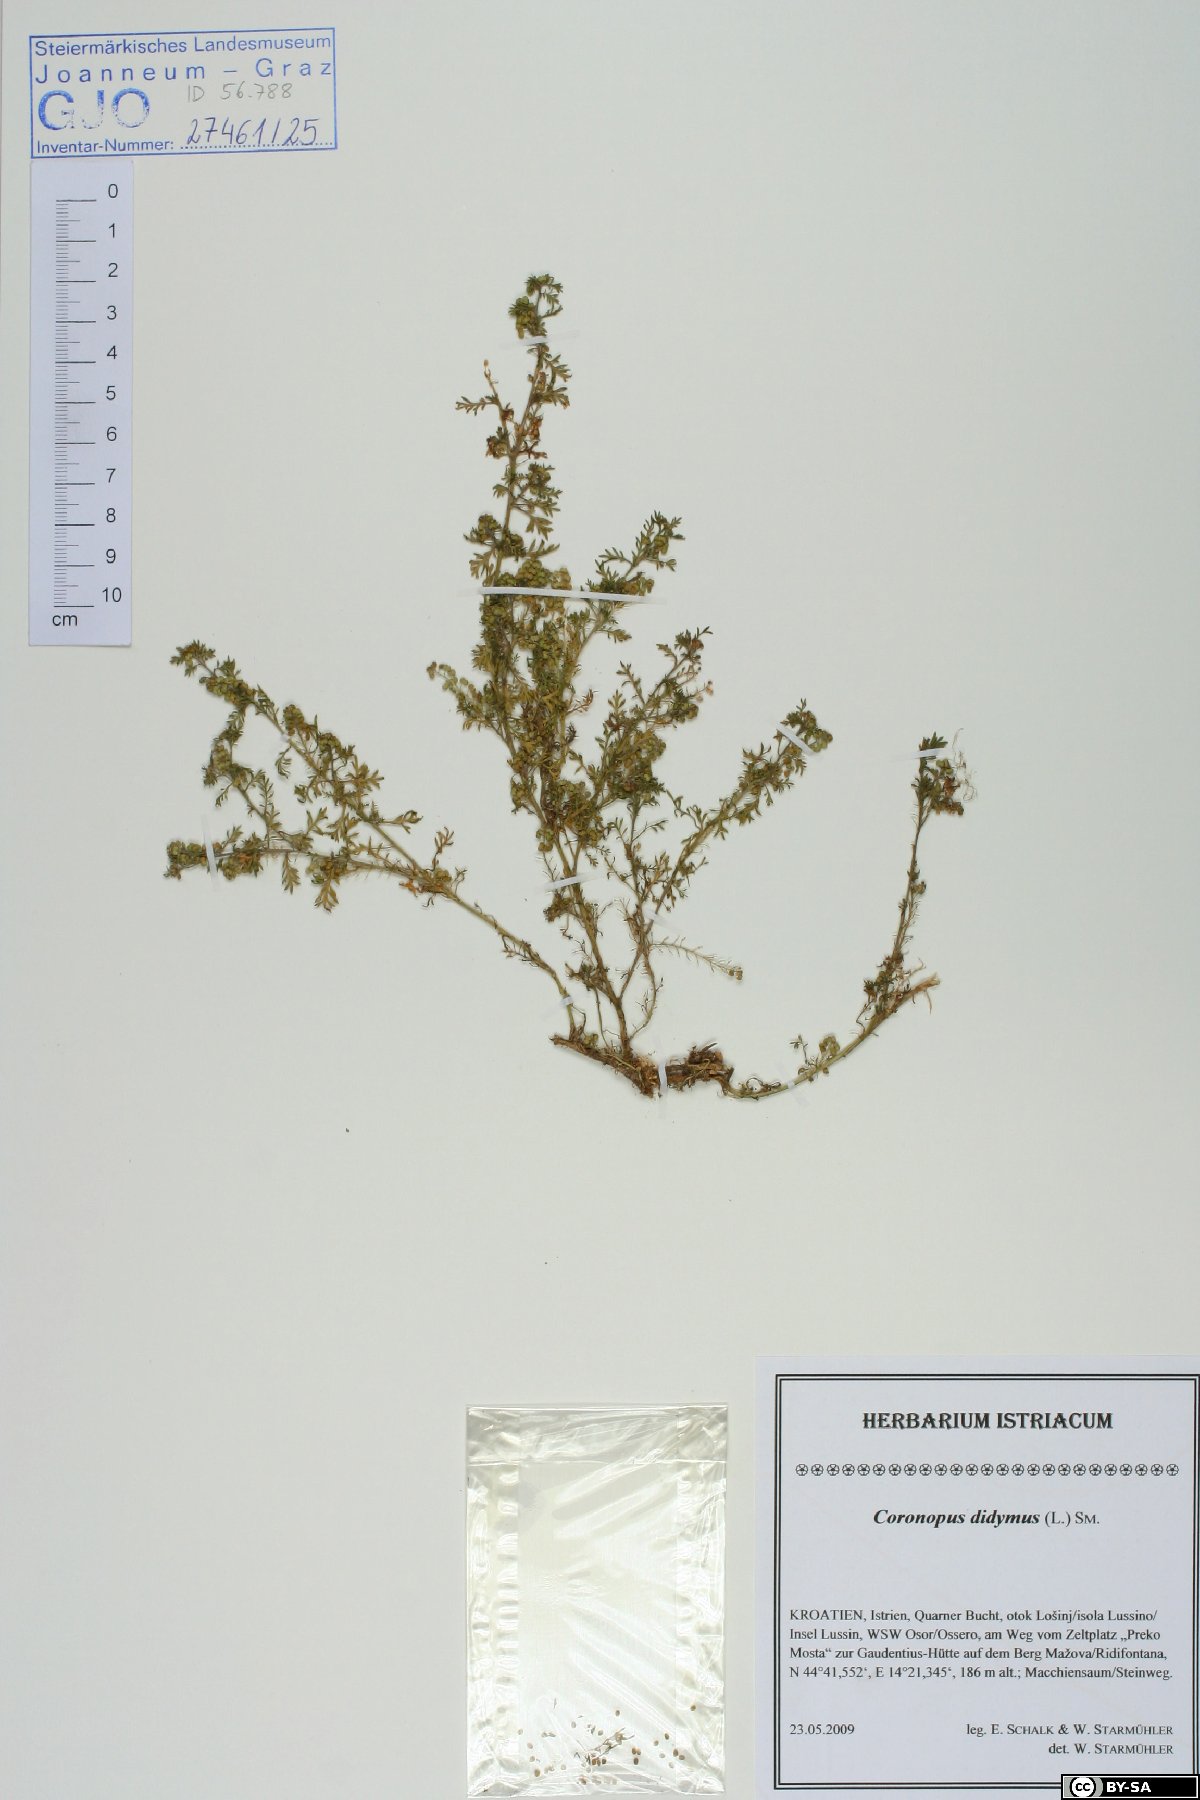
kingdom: Plantae
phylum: Tracheophyta
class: Magnoliopsida
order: Brassicales
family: Brassicaceae
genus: Lepidium
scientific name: Lepidium didymum
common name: Lesser swinecress
